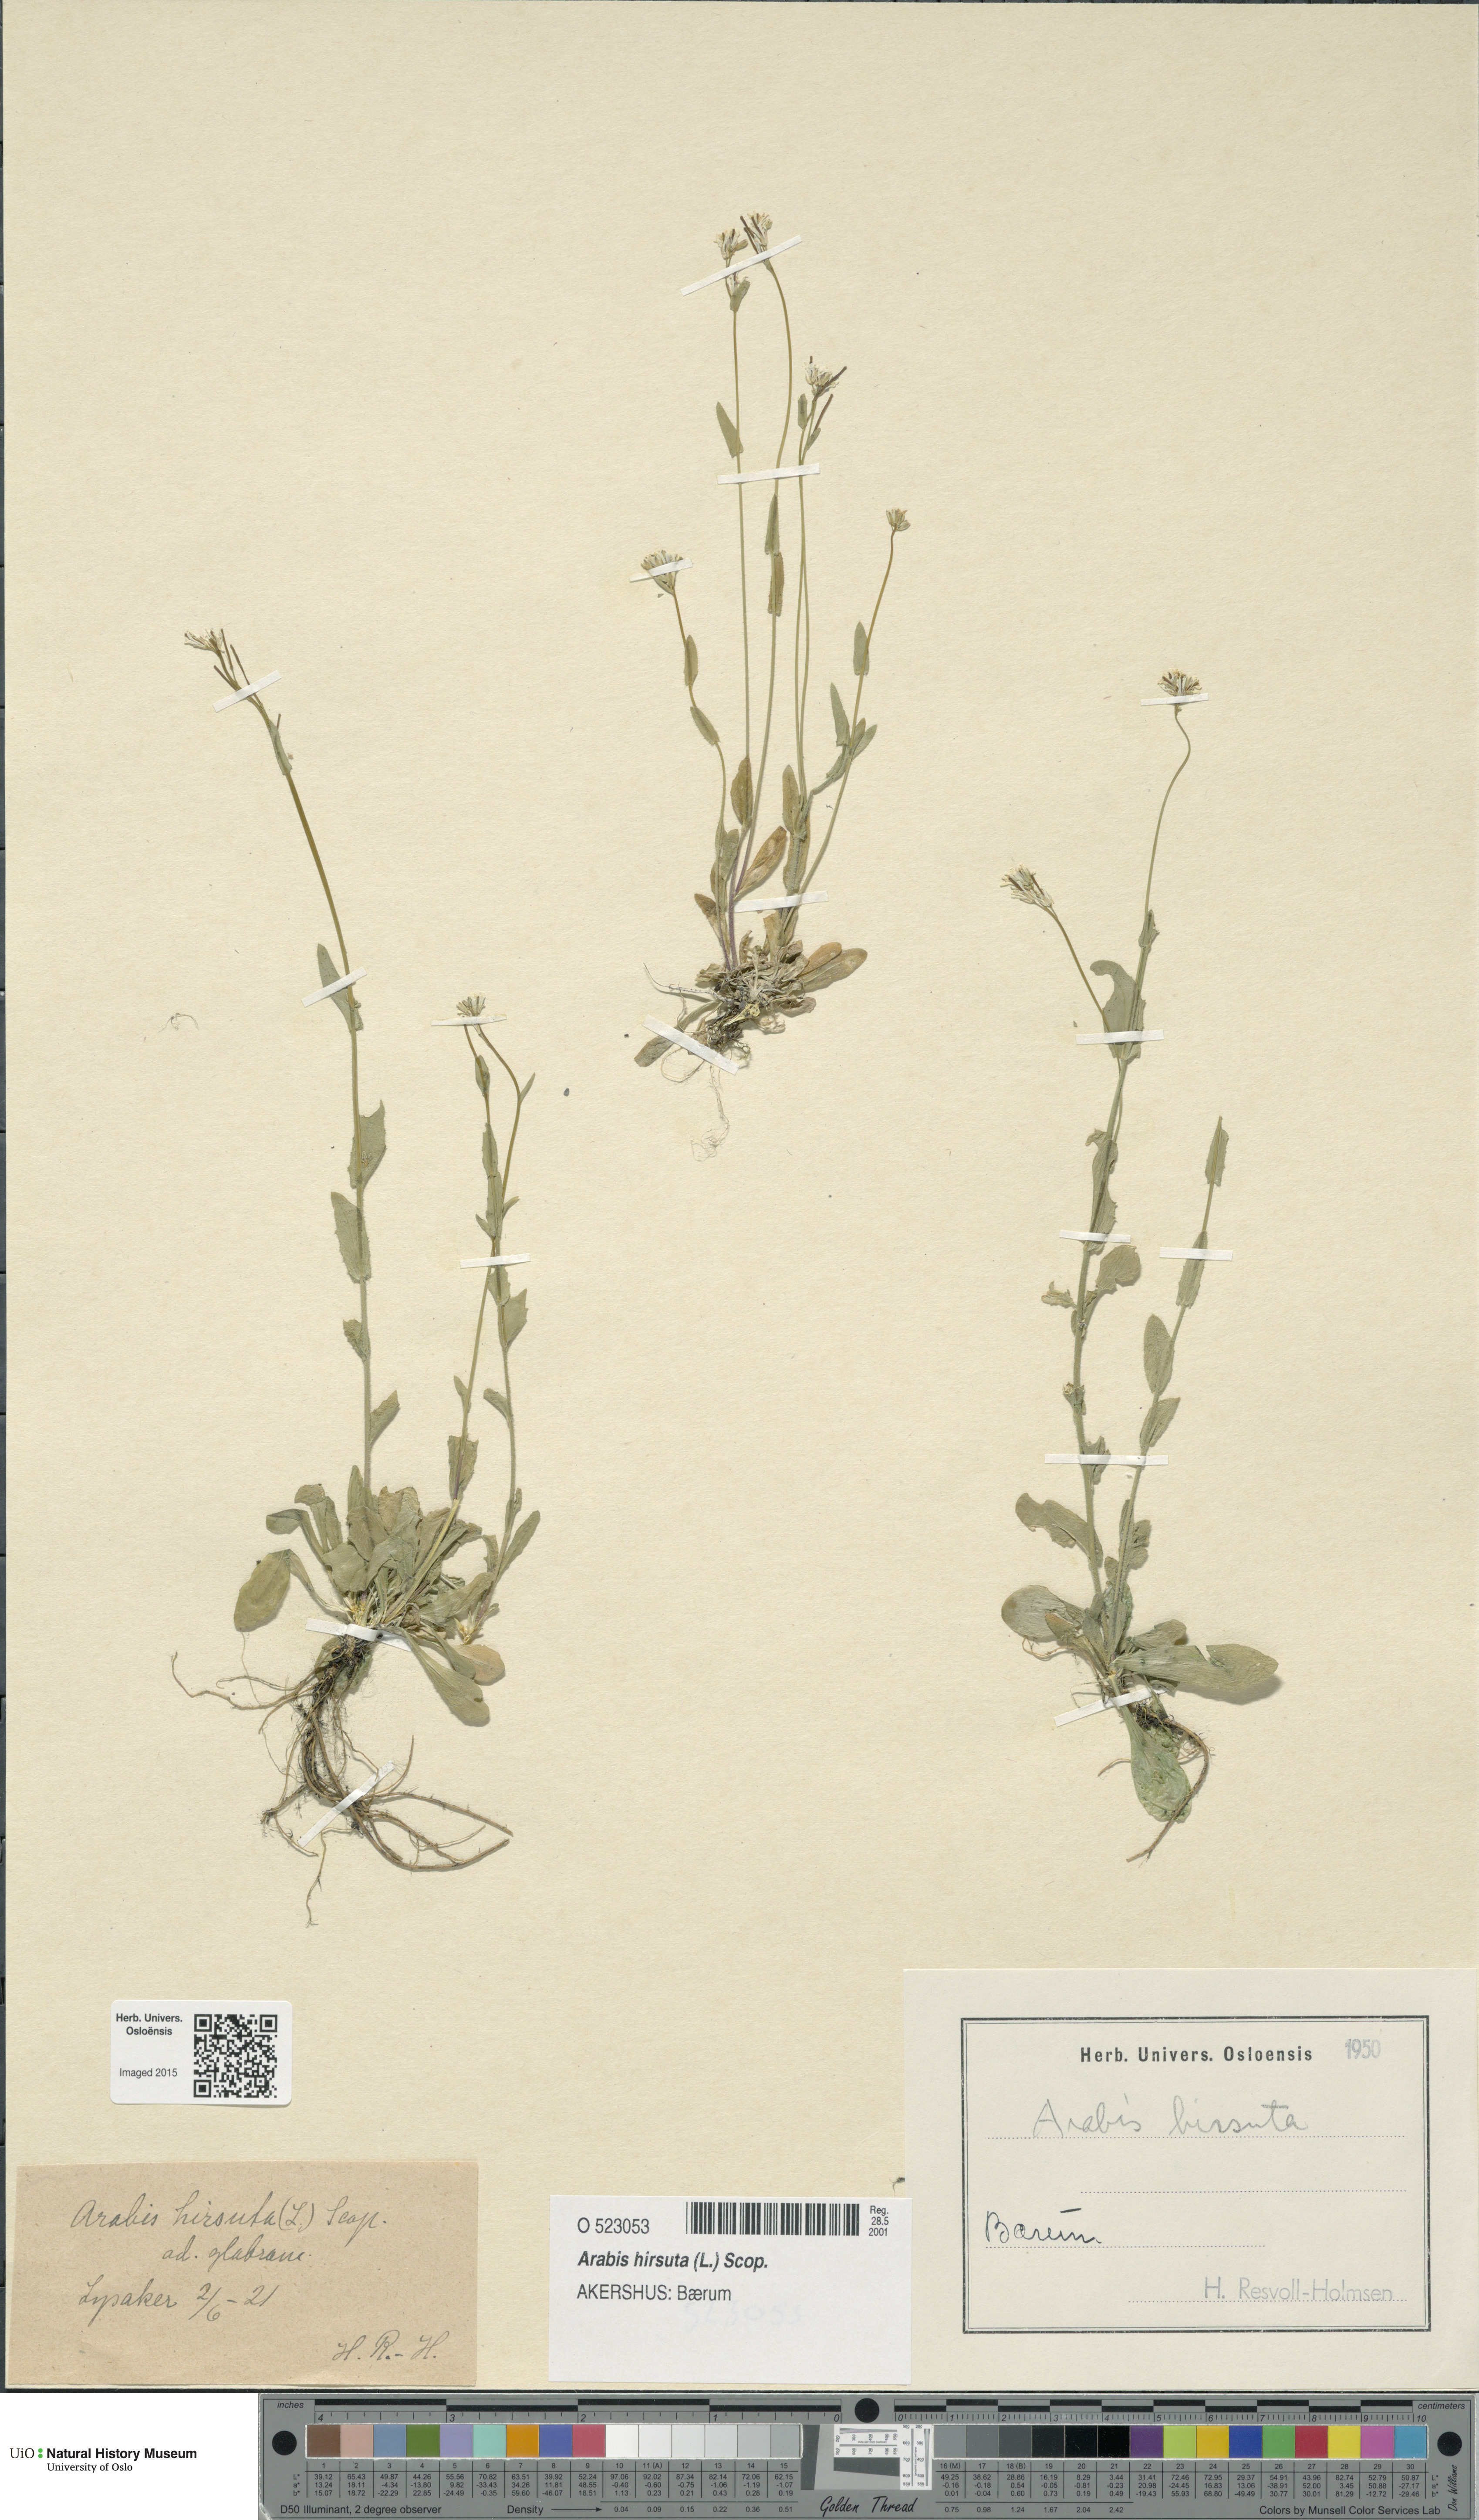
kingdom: Plantae
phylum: Tracheophyta
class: Magnoliopsida
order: Brassicales
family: Brassicaceae
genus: Arabis
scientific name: Arabis hirsuta
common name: Hairy rock-cress
